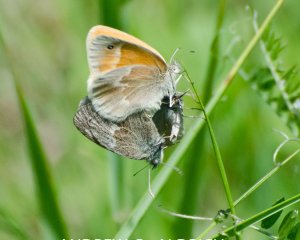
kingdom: Animalia
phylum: Arthropoda
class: Insecta
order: Lepidoptera
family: Nymphalidae
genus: Coenonympha
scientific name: Coenonympha tullia
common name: Large Heath
